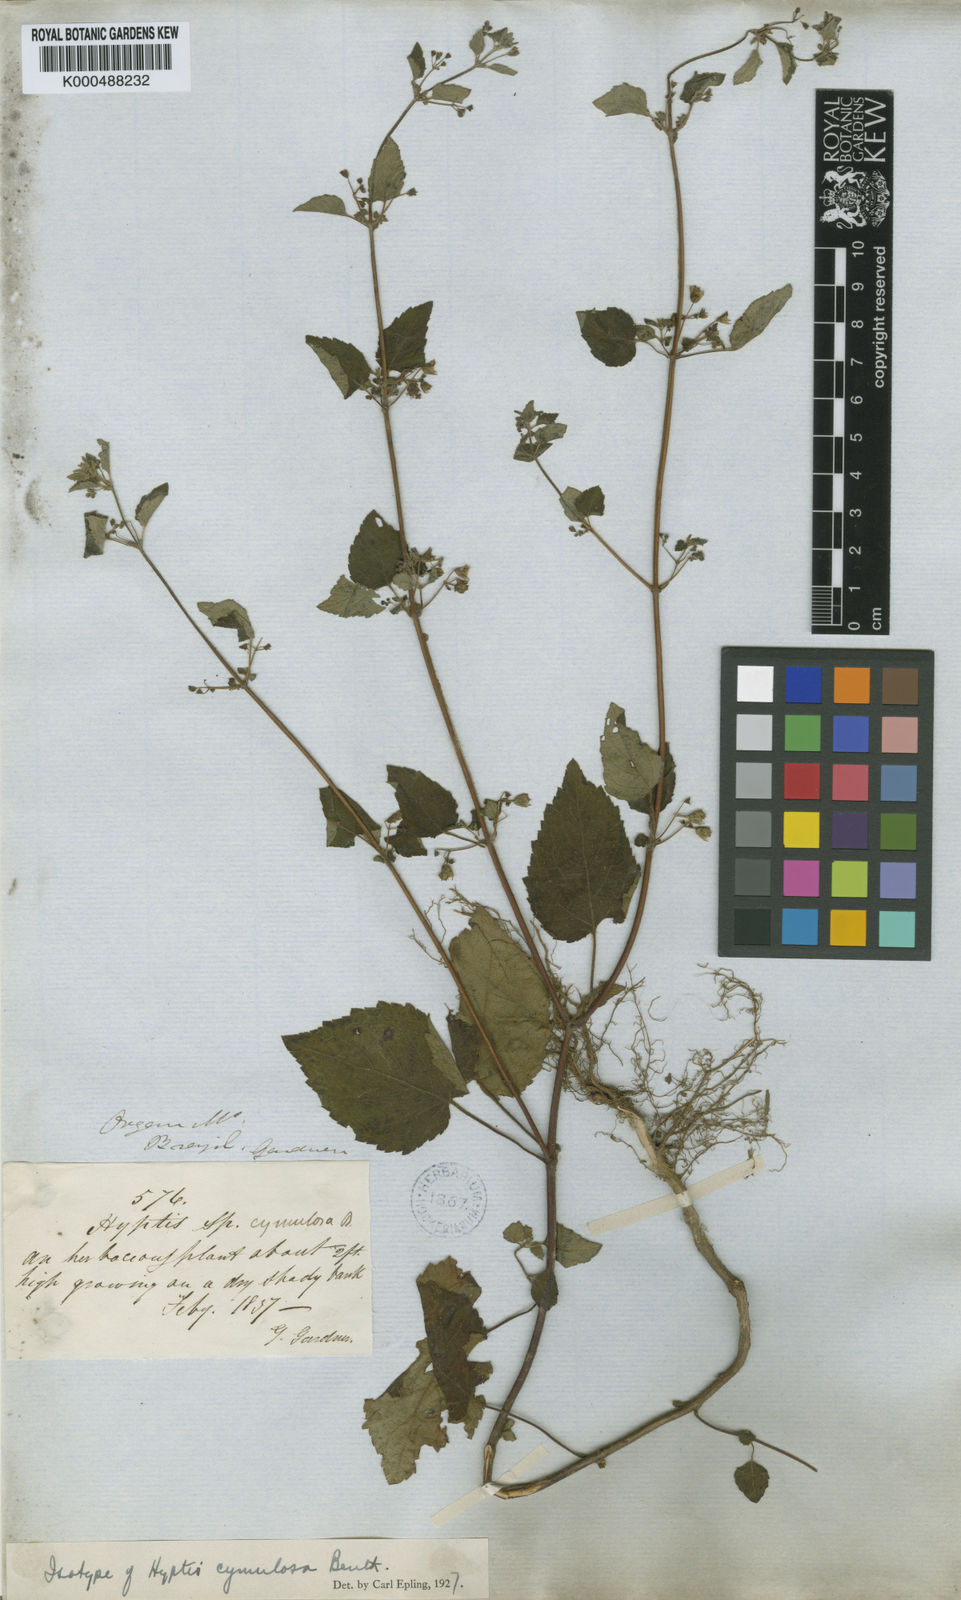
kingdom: Plantae
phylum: Tracheophyta
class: Magnoliopsida
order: Lamiales
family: Lamiaceae
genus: Hyptis
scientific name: Hyptis cymulosa
